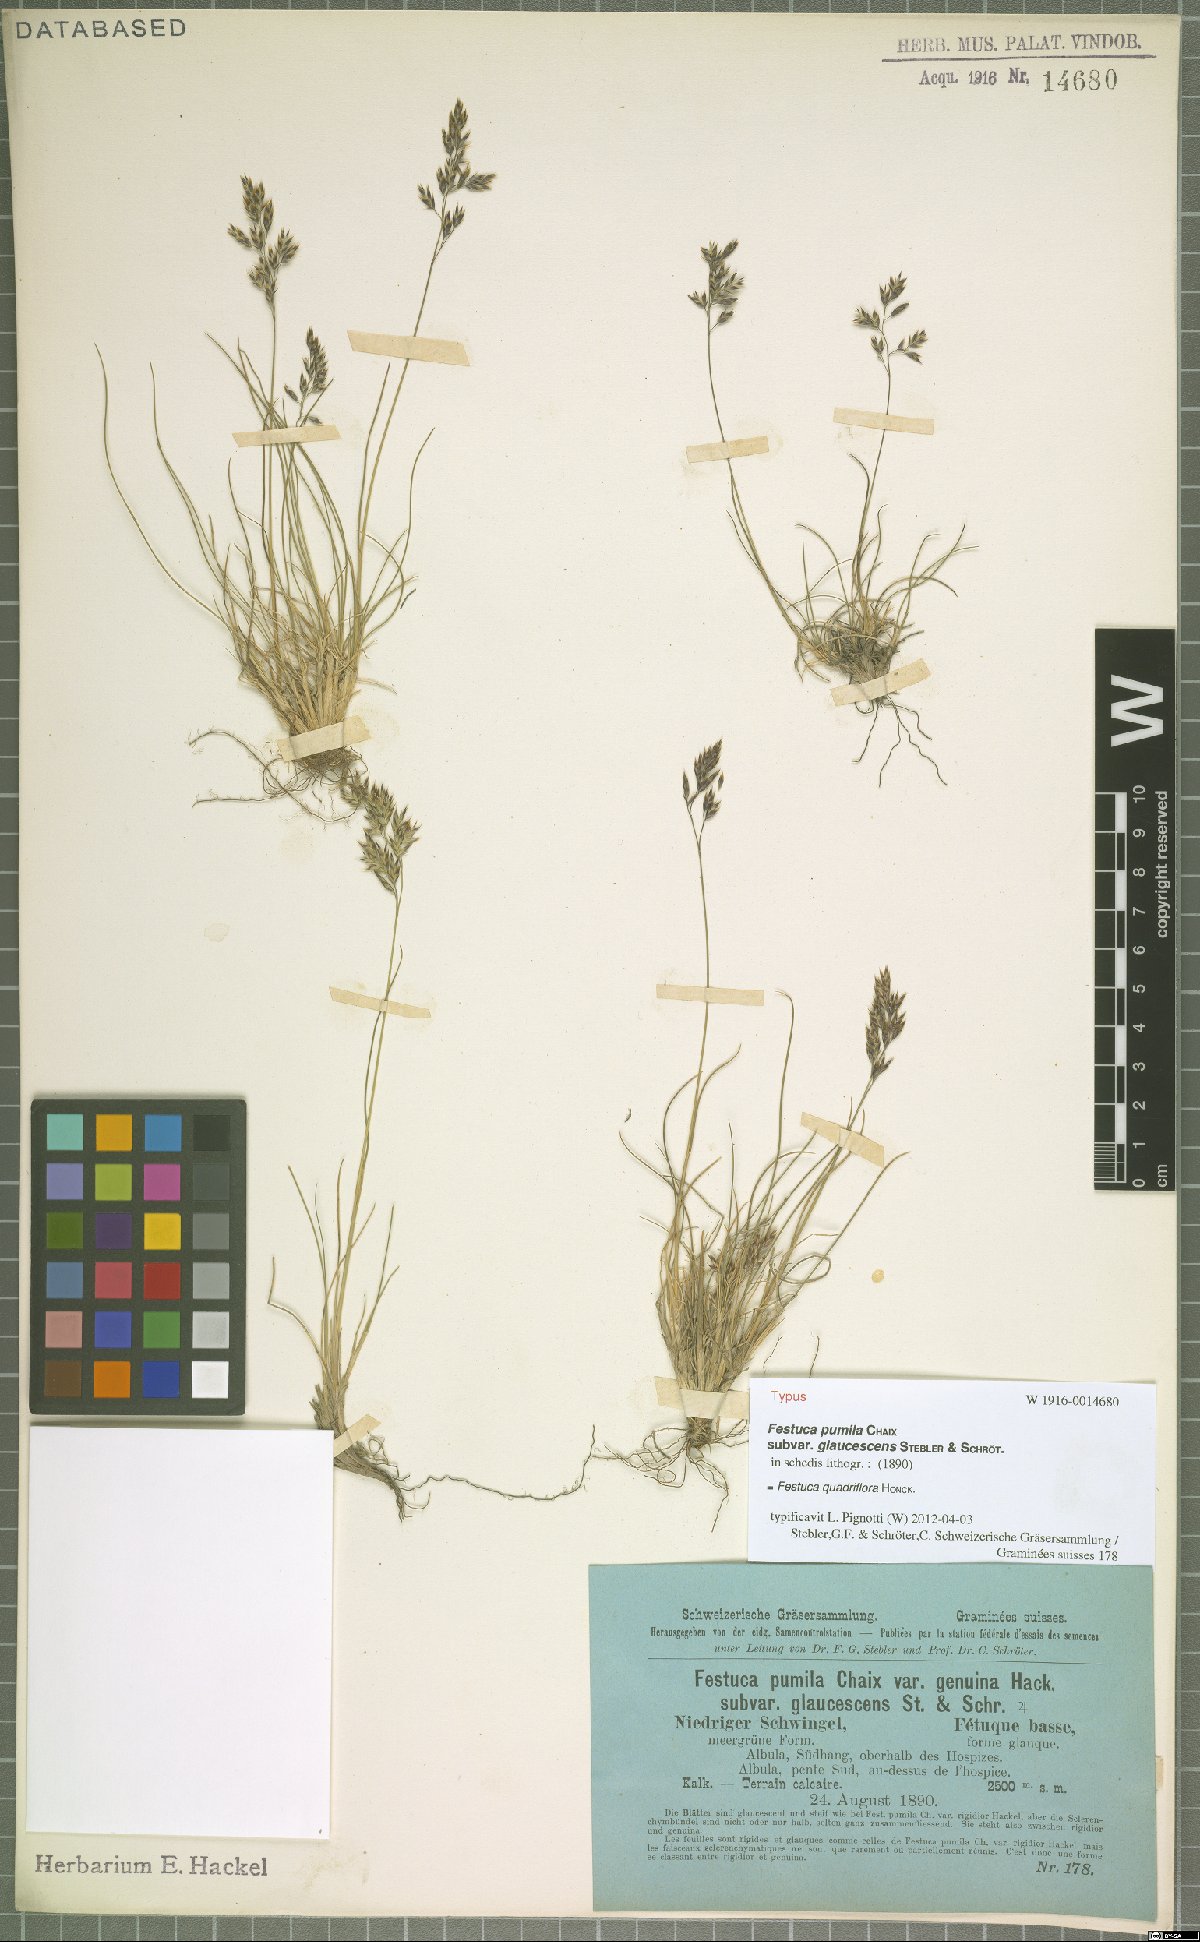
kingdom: Plantae
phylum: Tracheophyta
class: Liliopsida
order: Poales
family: Poaceae
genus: Festuca
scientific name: Festuca quadriflora
